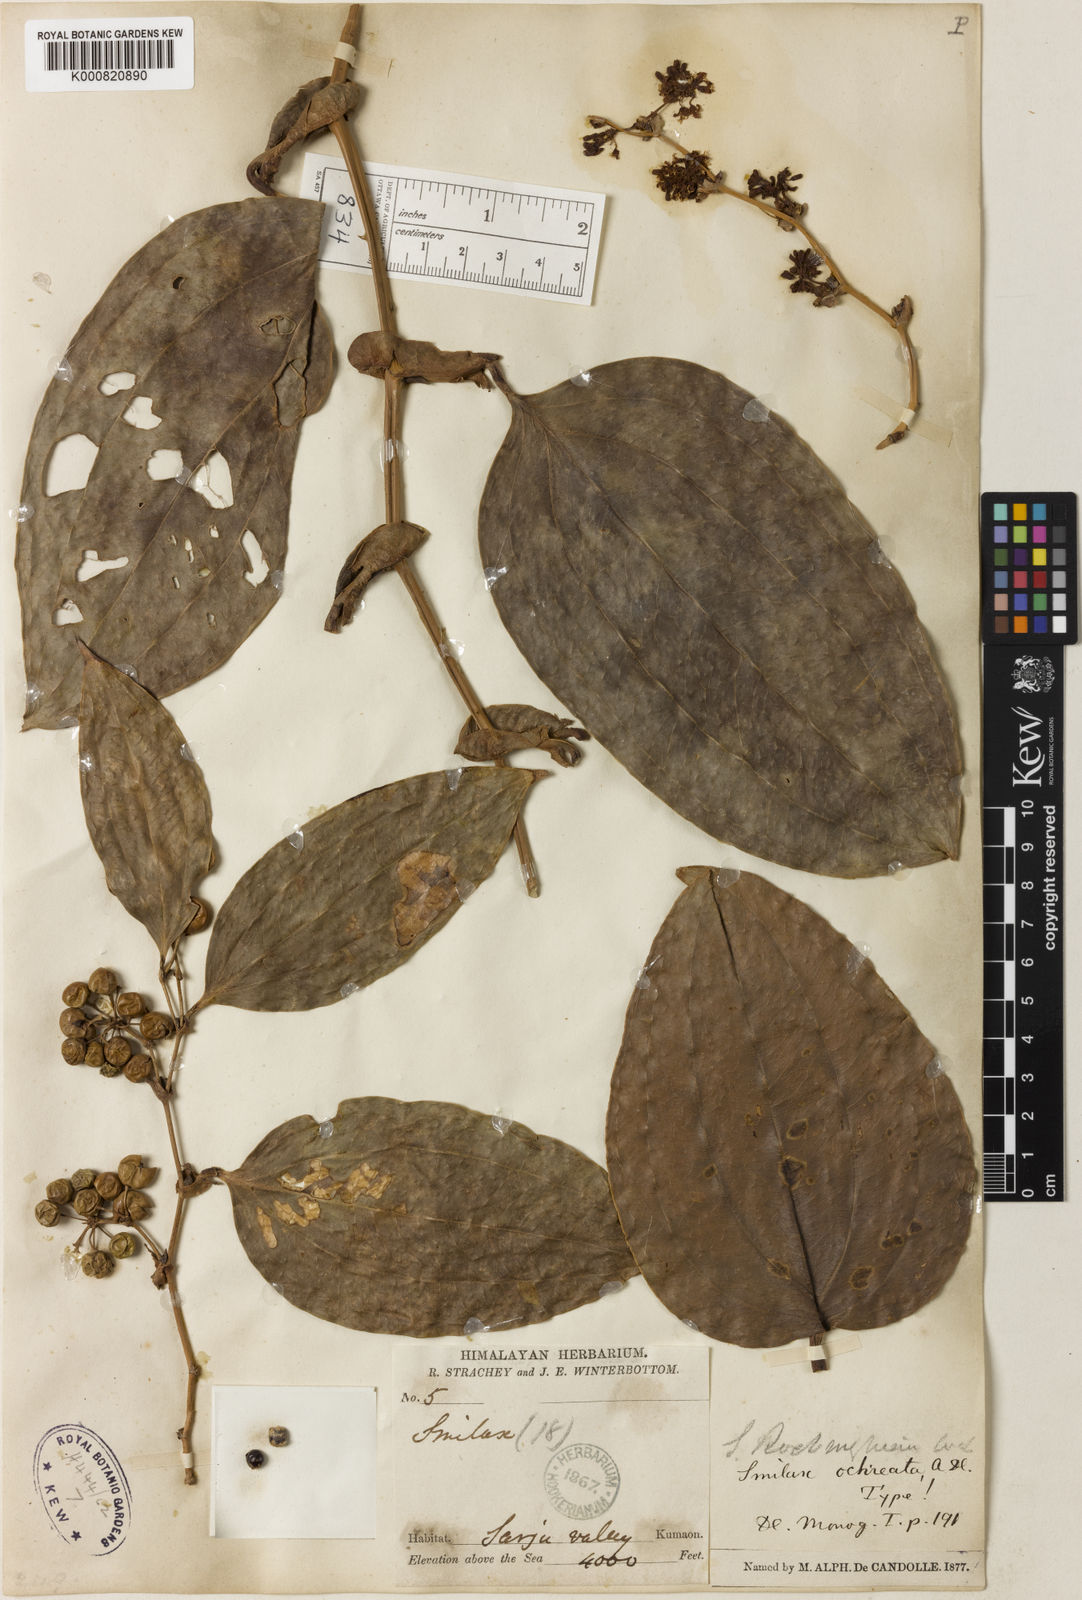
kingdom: Plantae
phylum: Tracheophyta
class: Liliopsida
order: Liliales
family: Smilacaceae
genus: Smilax
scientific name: Smilax ocreata
